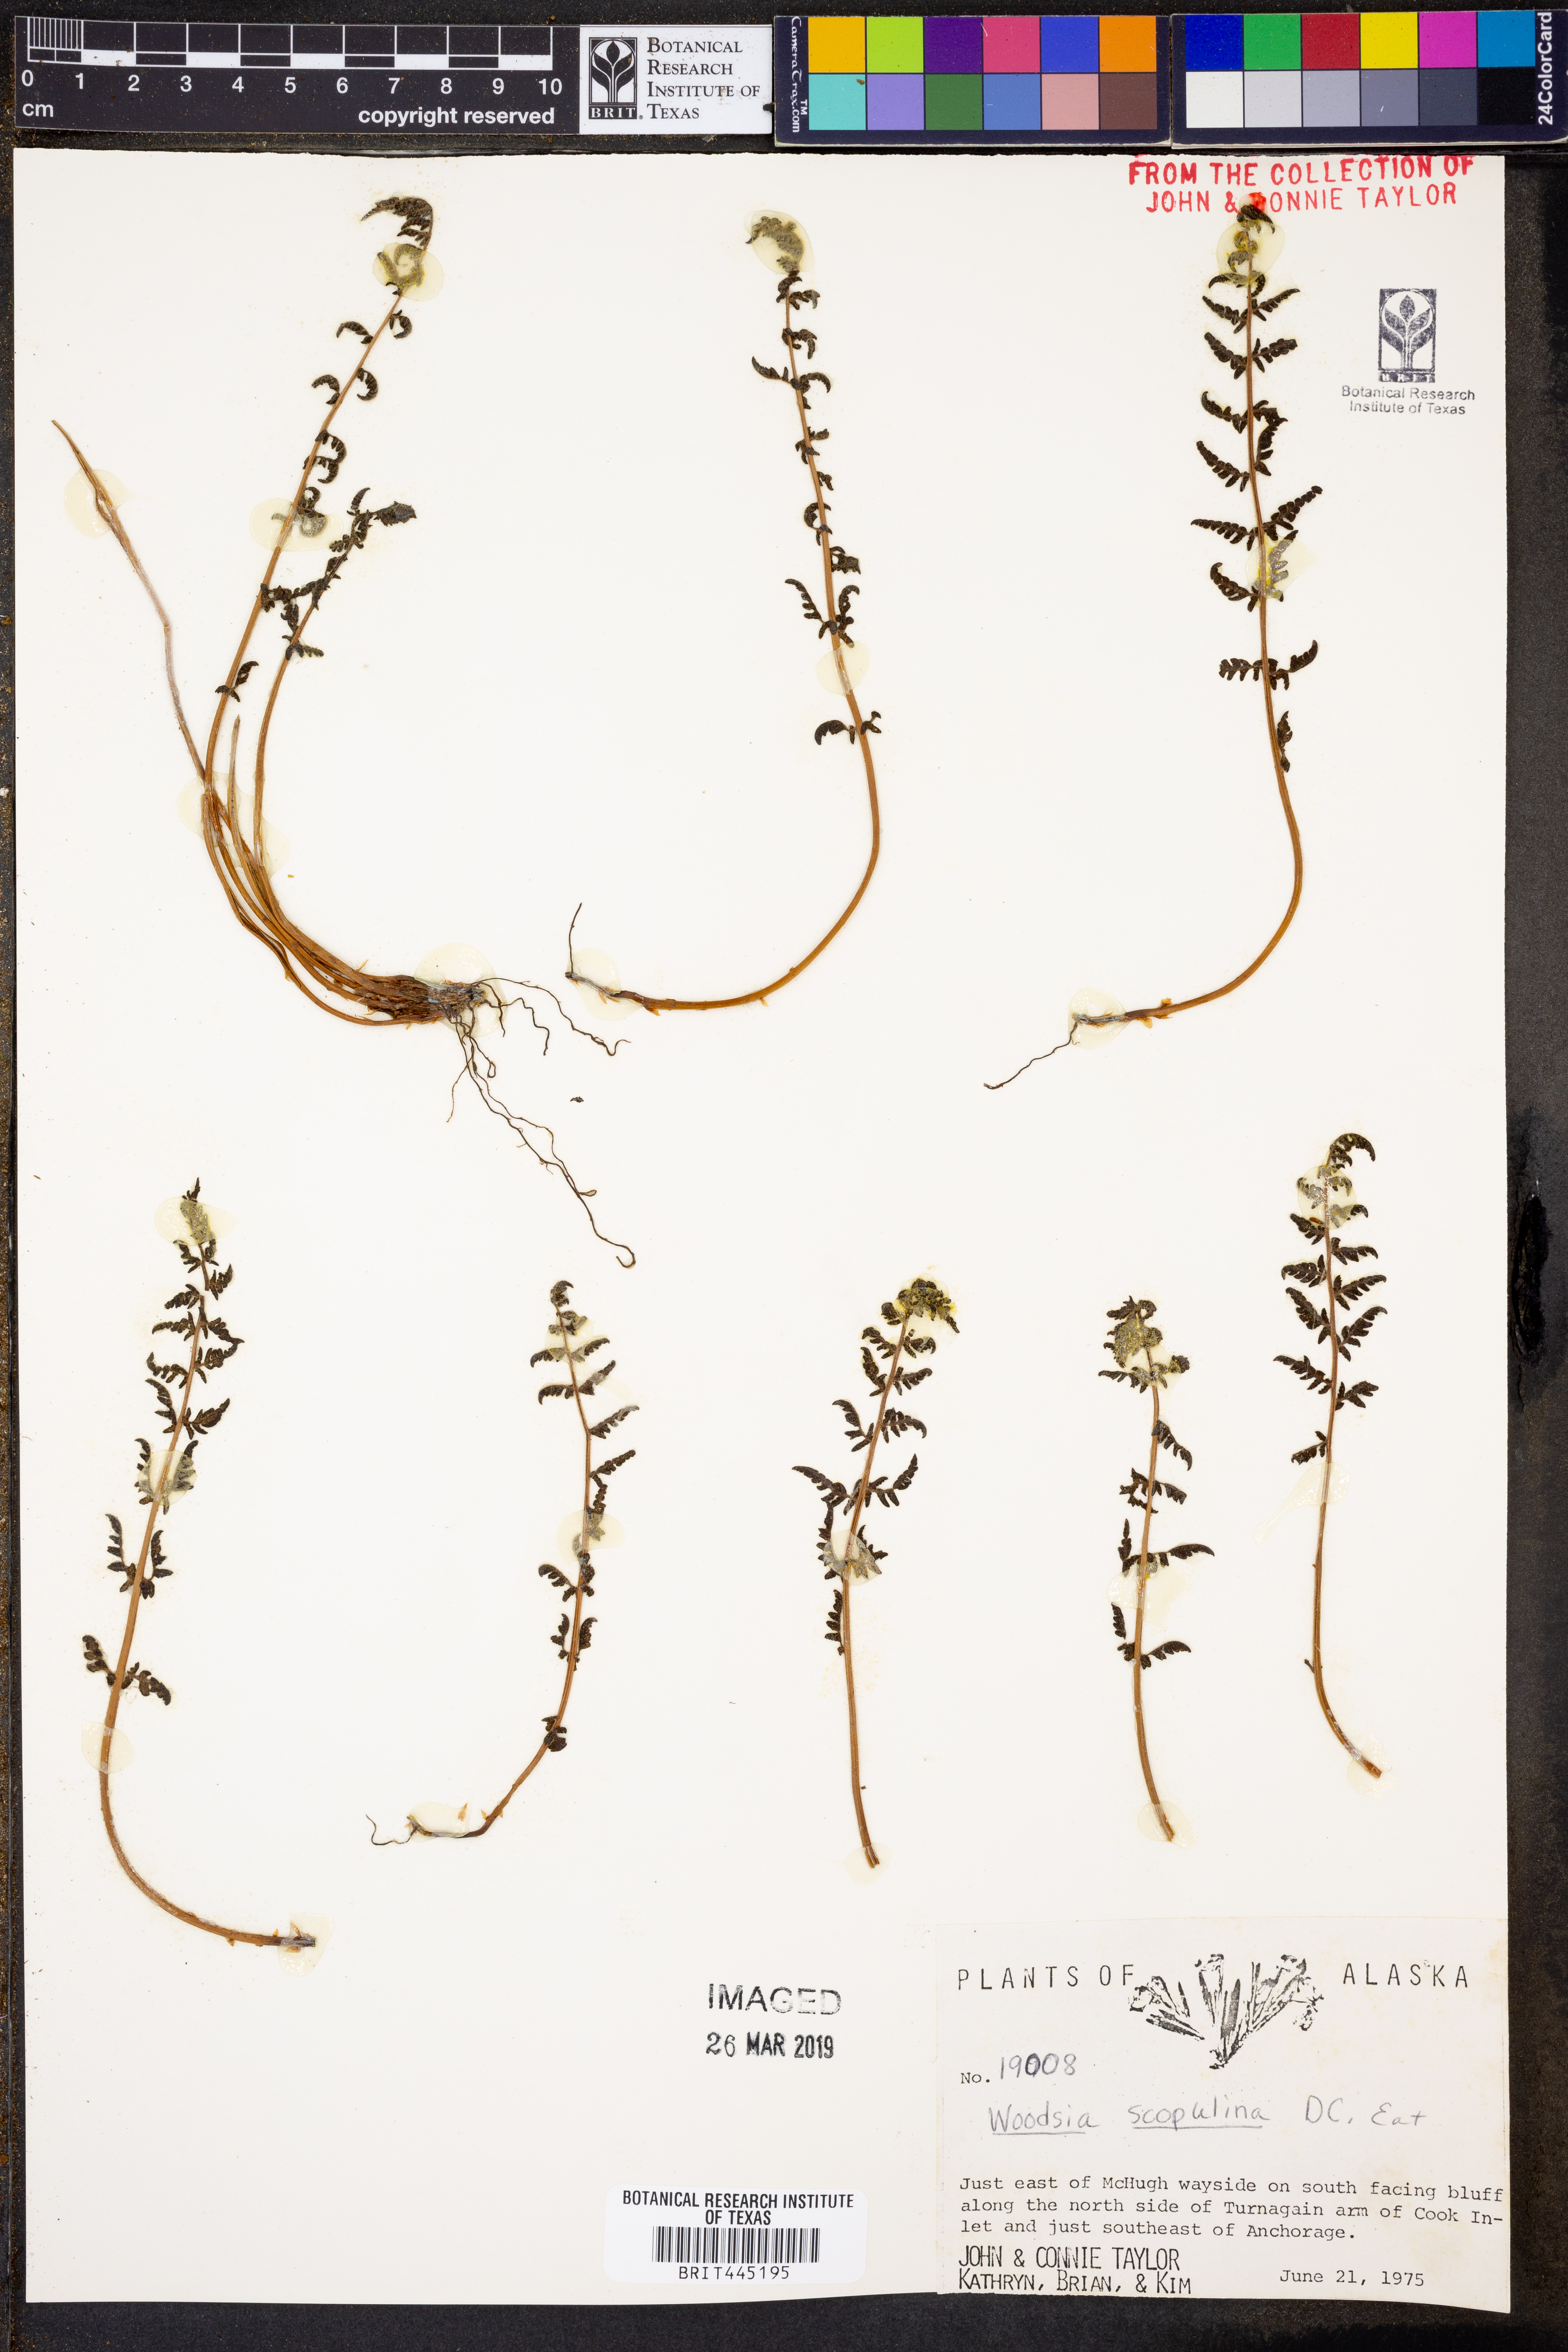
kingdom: Plantae
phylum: Tracheophyta
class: Polypodiopsida
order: Polypodiales
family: Woodsiaceae
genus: Physematium
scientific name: Physematium scopulinum
